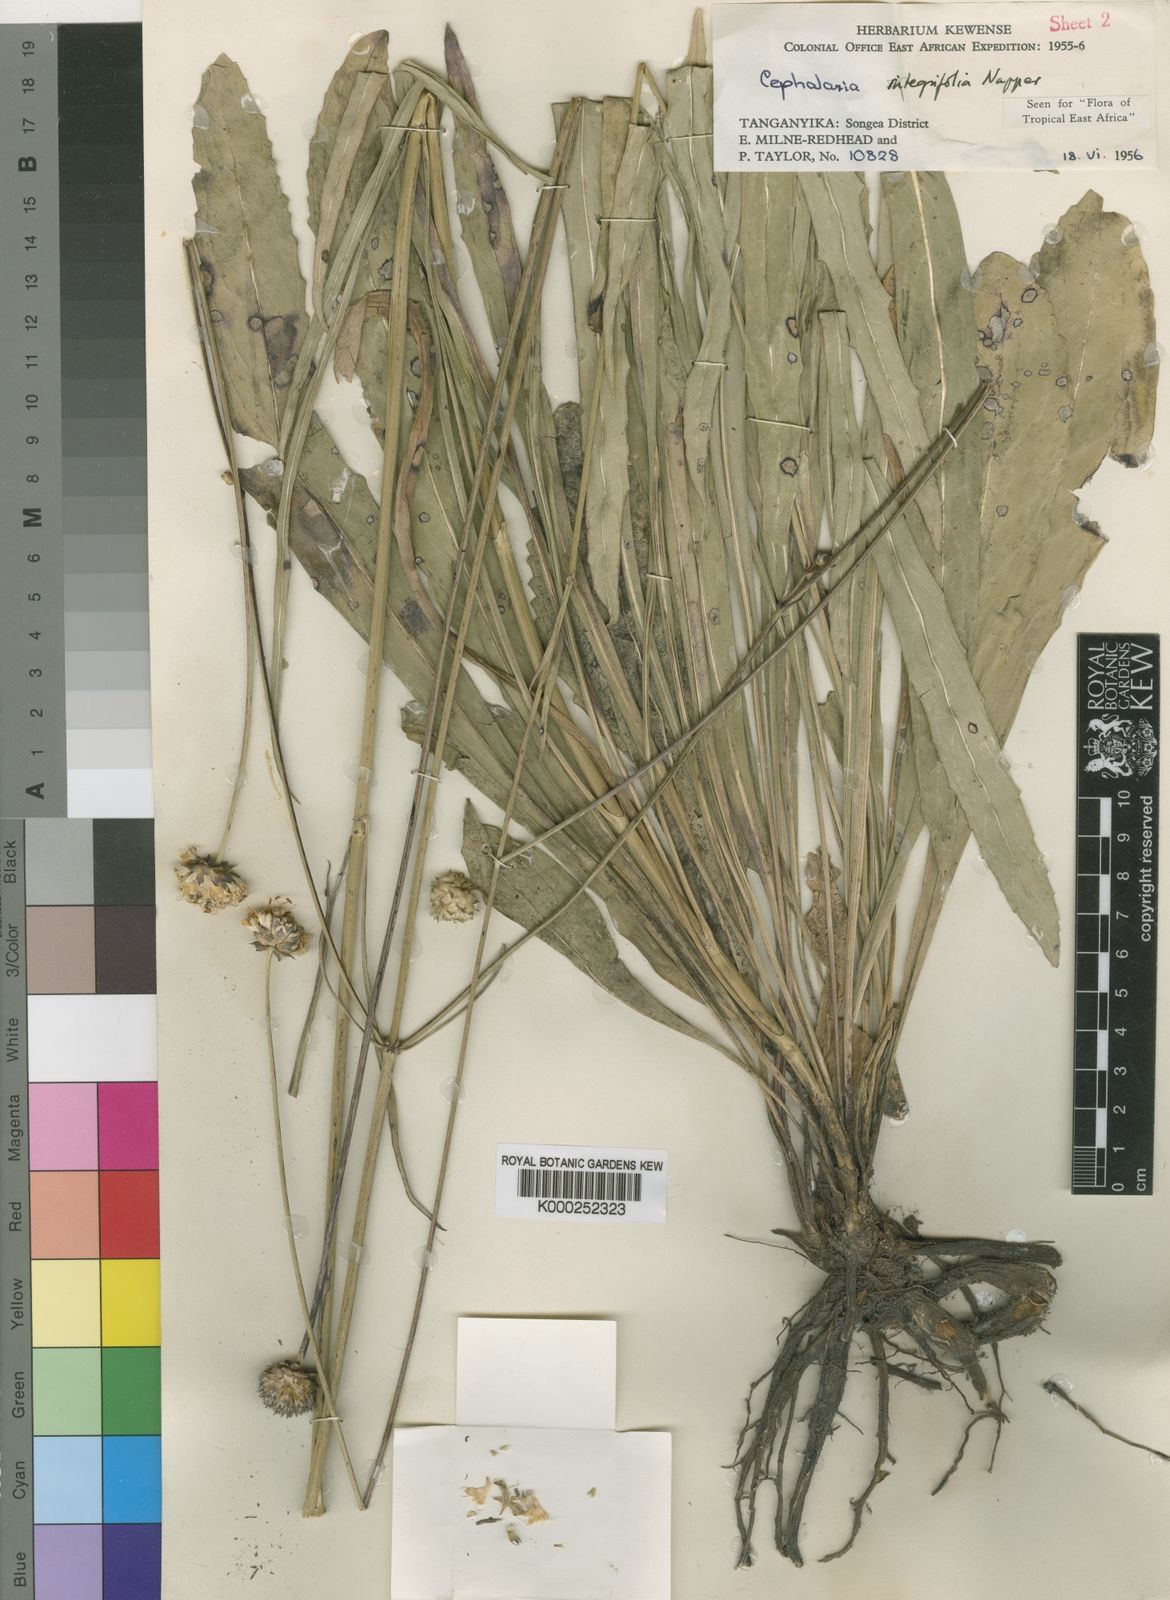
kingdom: Plantae
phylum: Tracheophyta
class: Magnoliopsida
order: Dipsacales
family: Caprifoliaceae
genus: Cephalaria
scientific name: Cephalaria integrifolia
